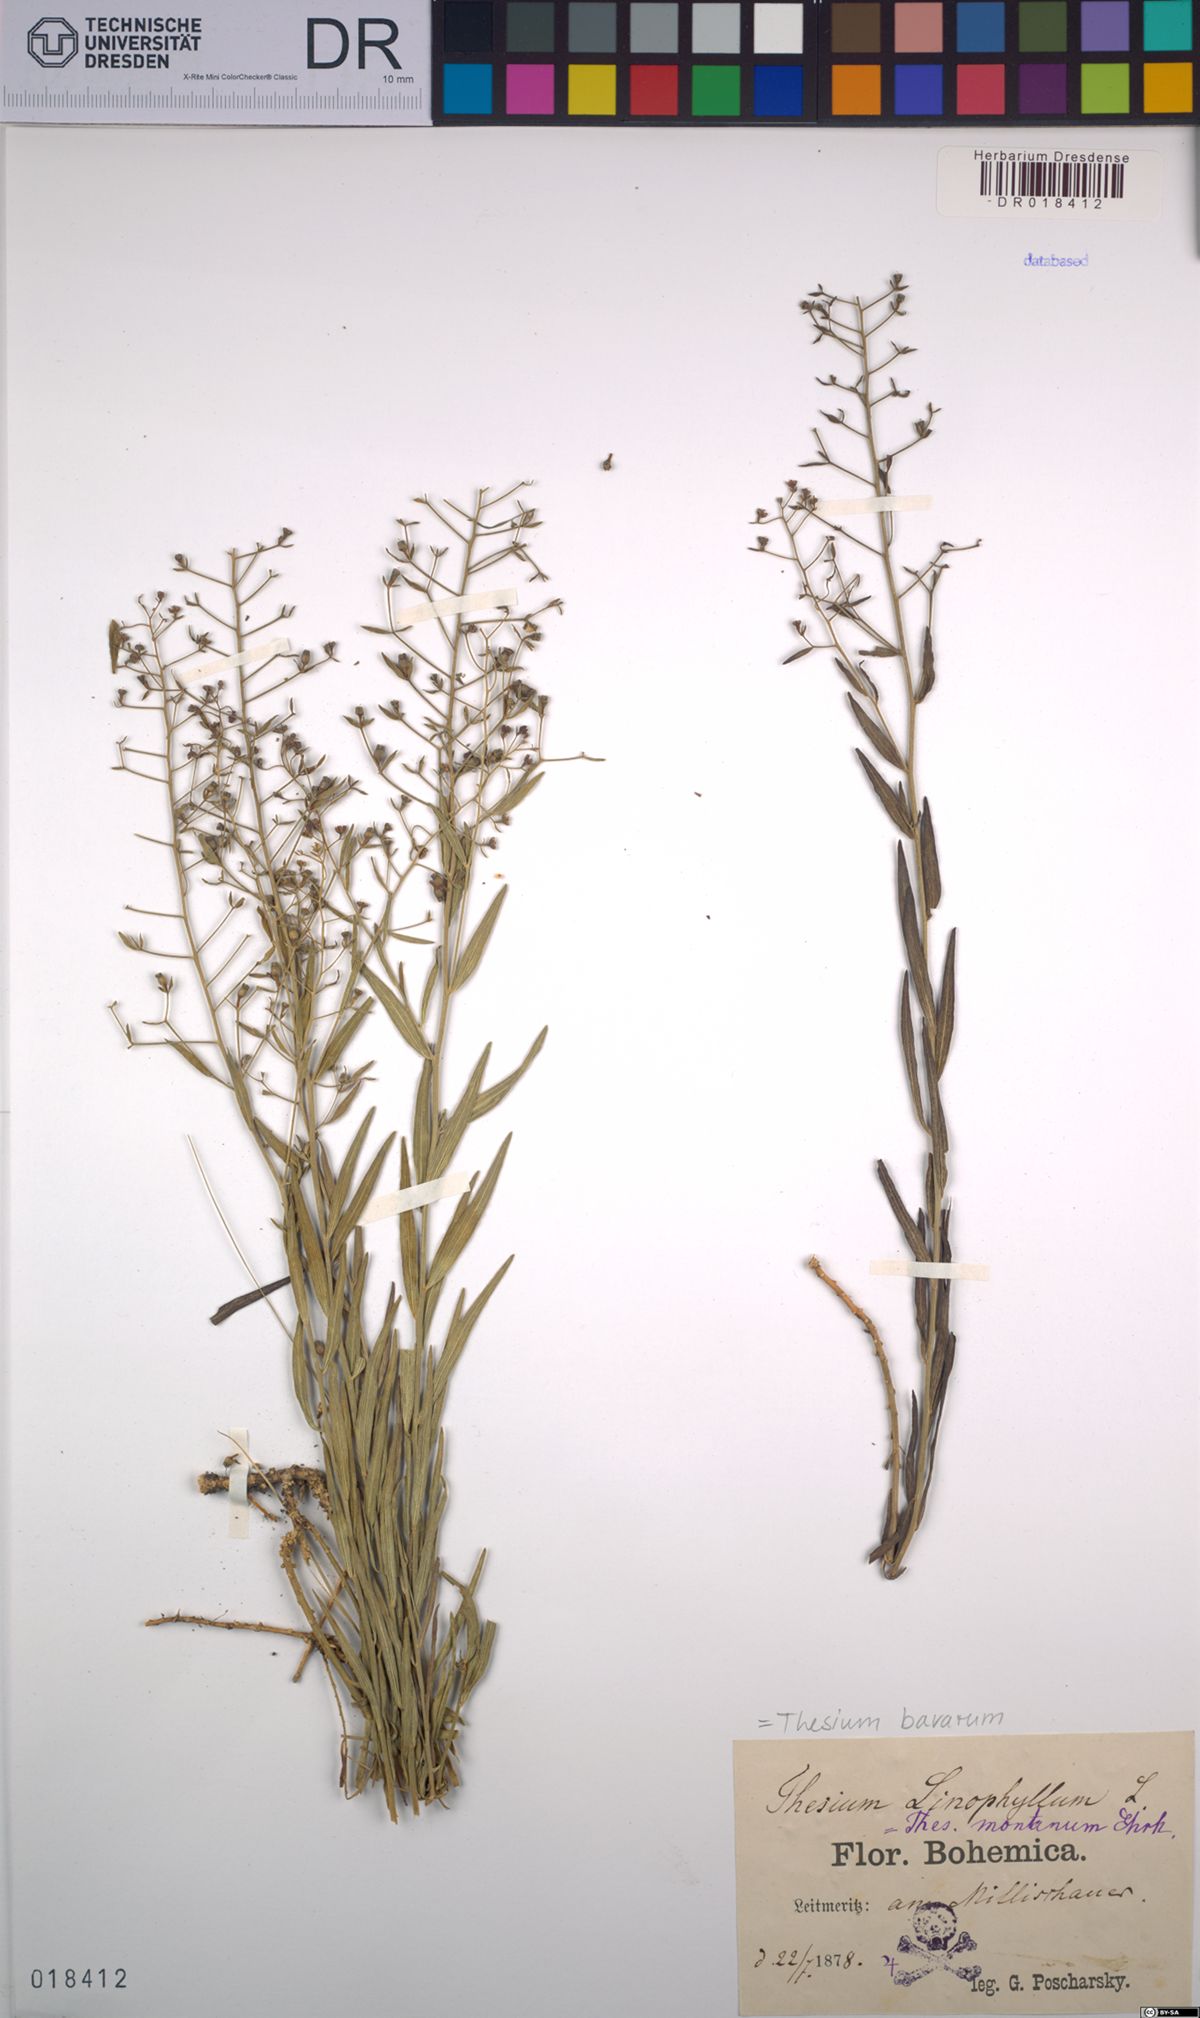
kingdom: Plantae
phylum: Tracheophyta
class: Magnoliopsida
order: Santalales
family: Thesiaceae
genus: Thesium
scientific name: Thesium bavarum
